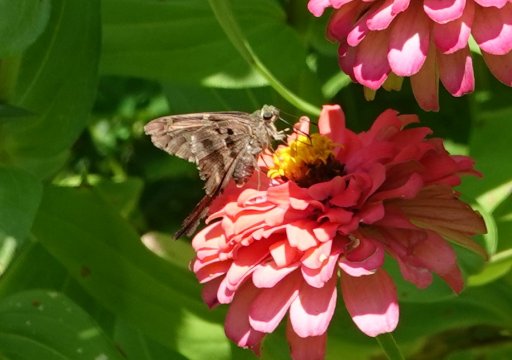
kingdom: Animalia
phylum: Arthropoda
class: Insecta
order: Lepidoptera
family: Hesperiidae
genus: Urbanus
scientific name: Urbanus proteus
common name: Long-tailed Skipper
